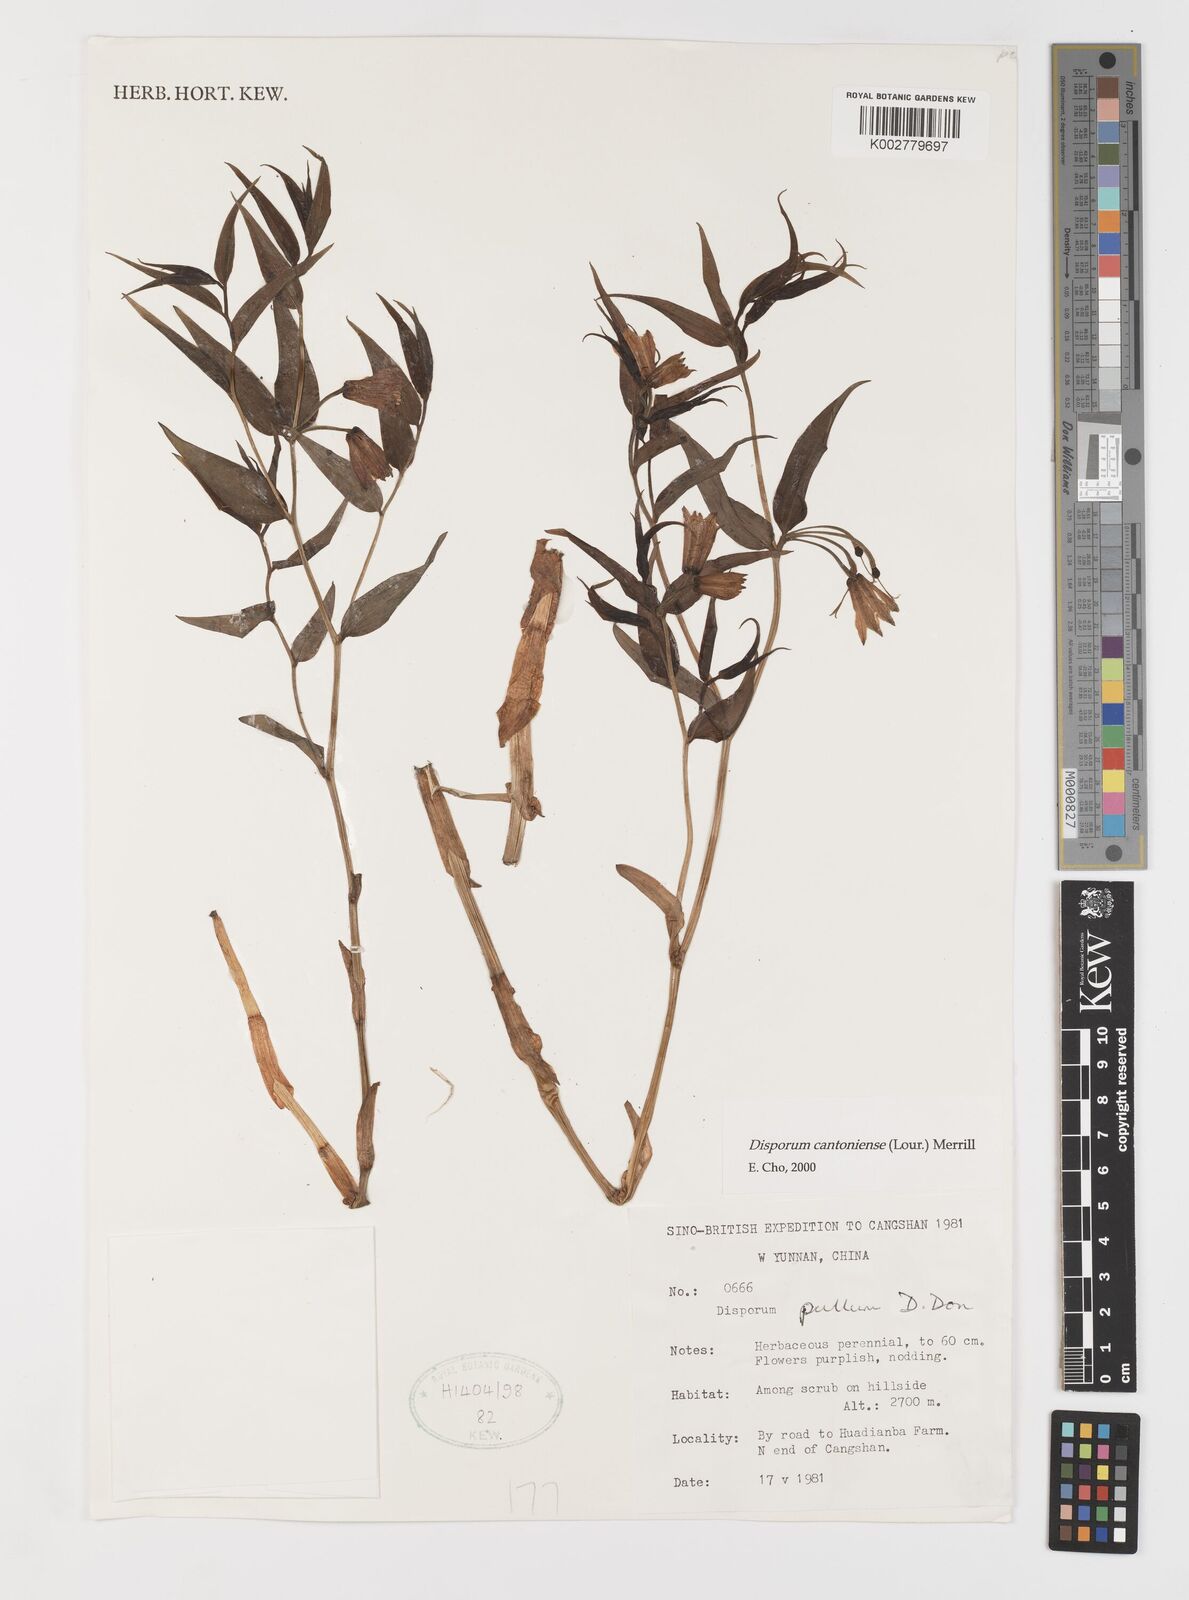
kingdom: Plantae
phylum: Tracheophyta
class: Liliopsida
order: Liliales
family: Colchicaceae
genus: Disporum
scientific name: Disporum cantoniense
